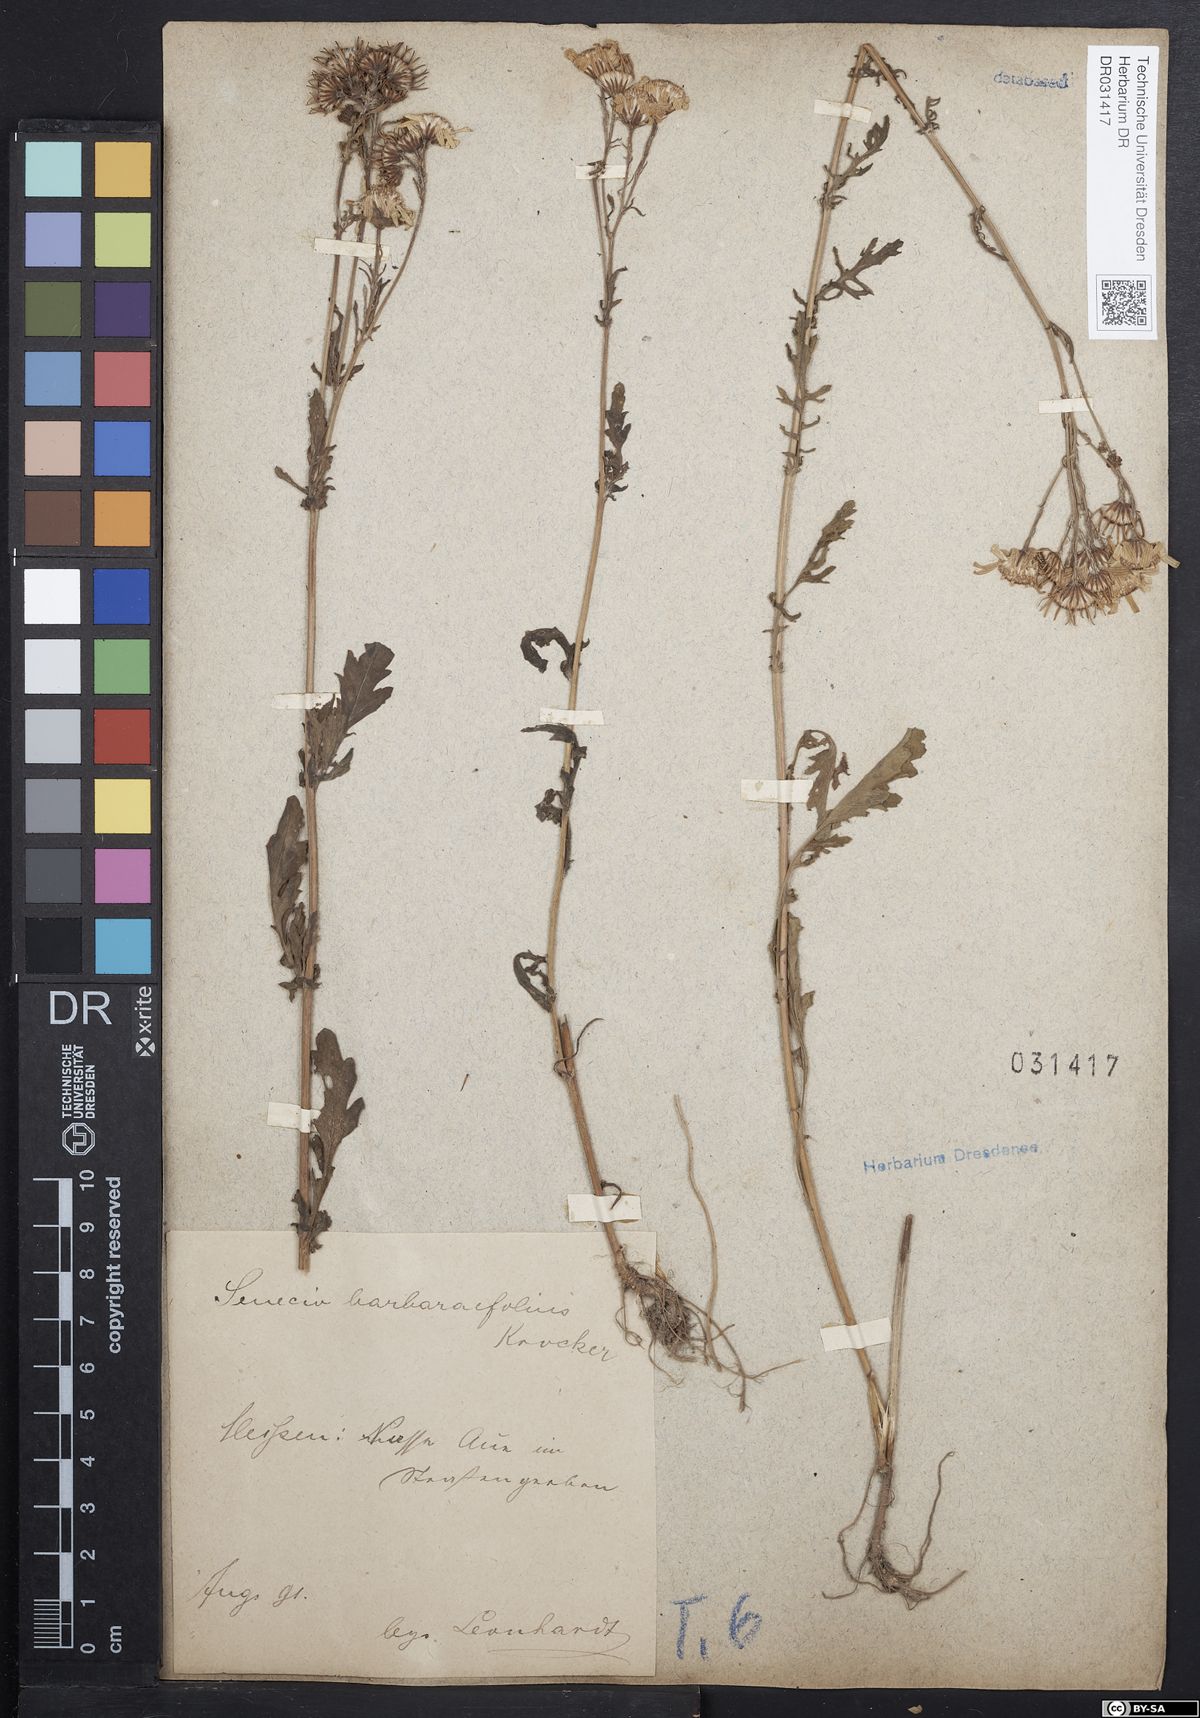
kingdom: Plantae
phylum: Tracheophyta
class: Magnoliopsida
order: Asterales
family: Asteraceae
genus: Jacobaea
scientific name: Jacobaea aquatica
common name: Water ragwort
